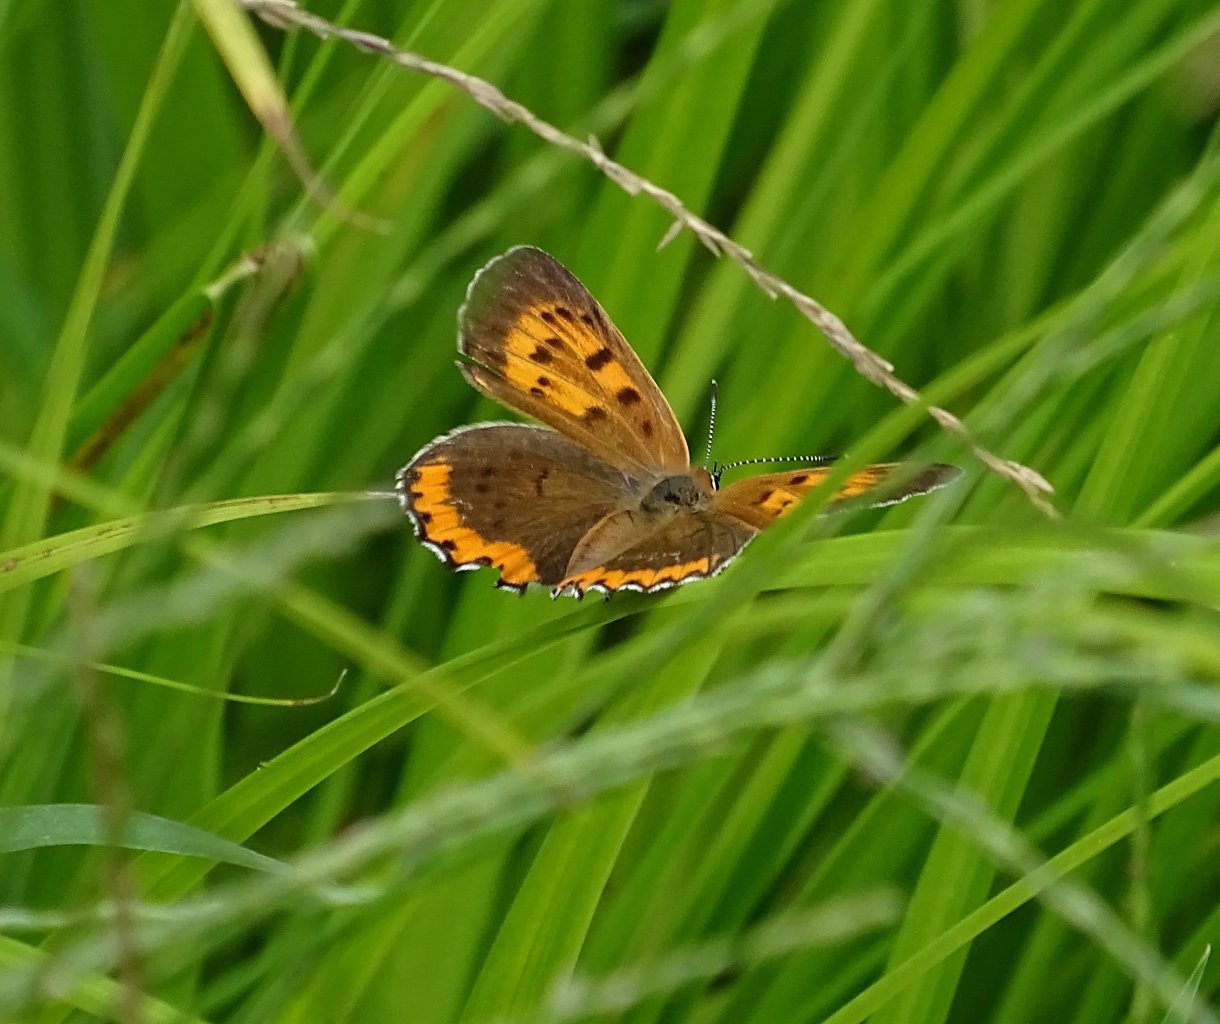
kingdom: Animalia
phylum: Arthropoda
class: Insecta
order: Lepidoptera
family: Sesiidae
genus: Sesia
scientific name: Sesia Lycaena hyllus
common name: Bronze Copper
